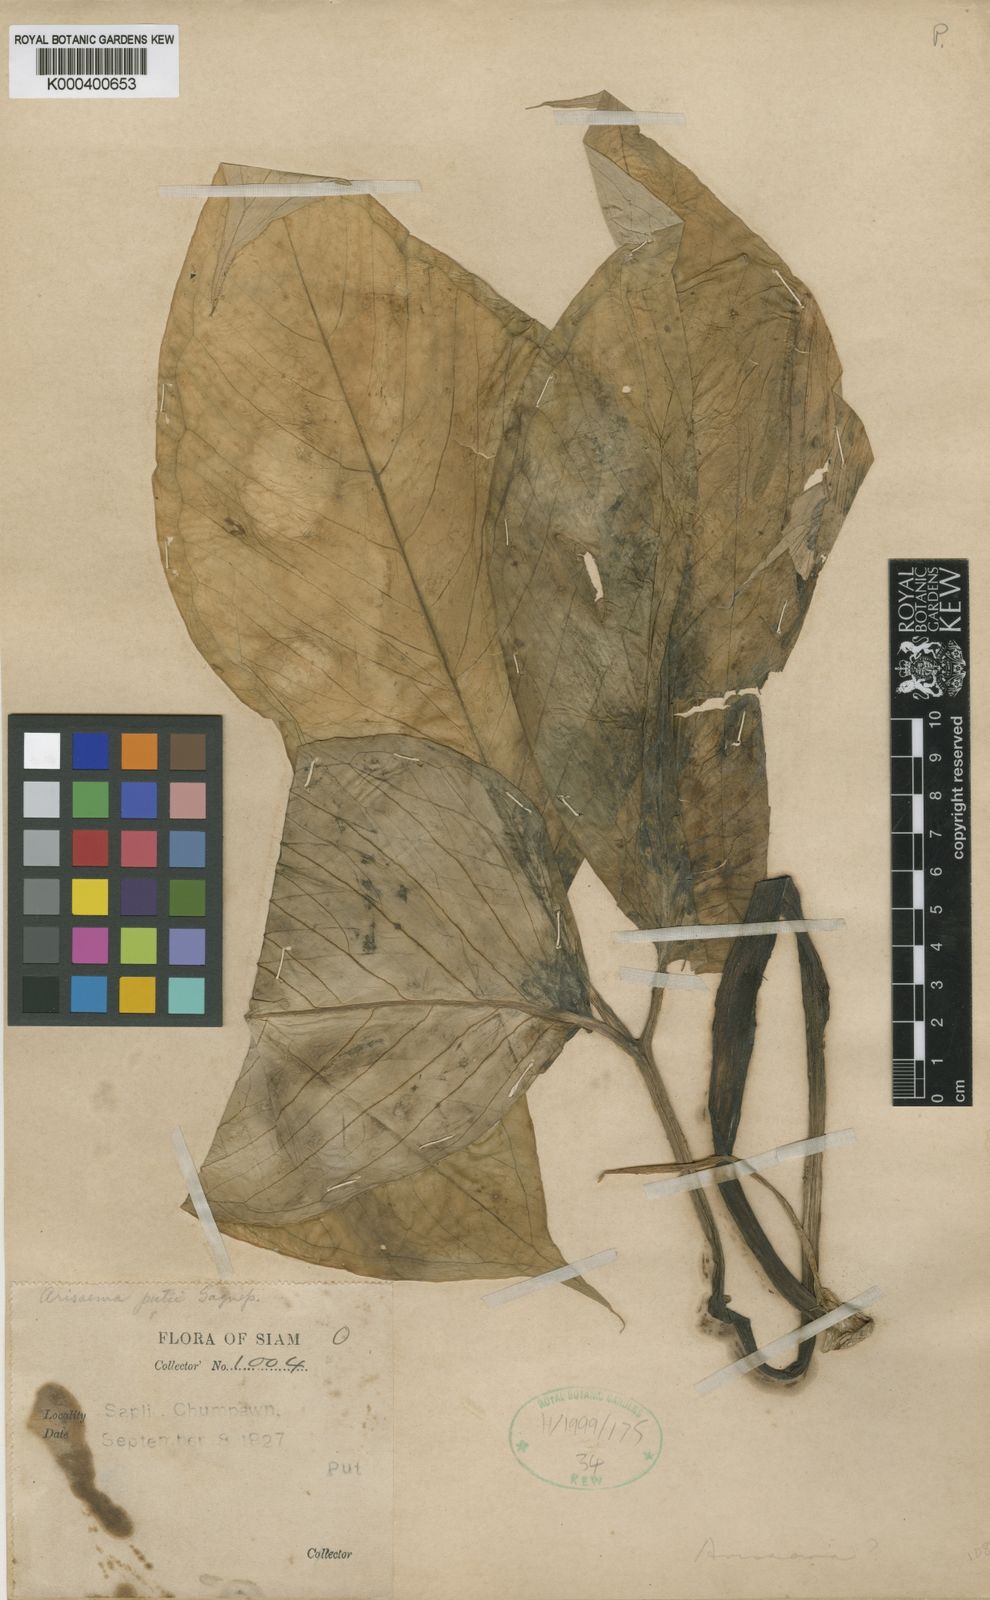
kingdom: Plantae
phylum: Tracheophyta
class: Liliopsida
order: Alismatales
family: Araceae
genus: Arisaema
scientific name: Arisaema fimbriatum
